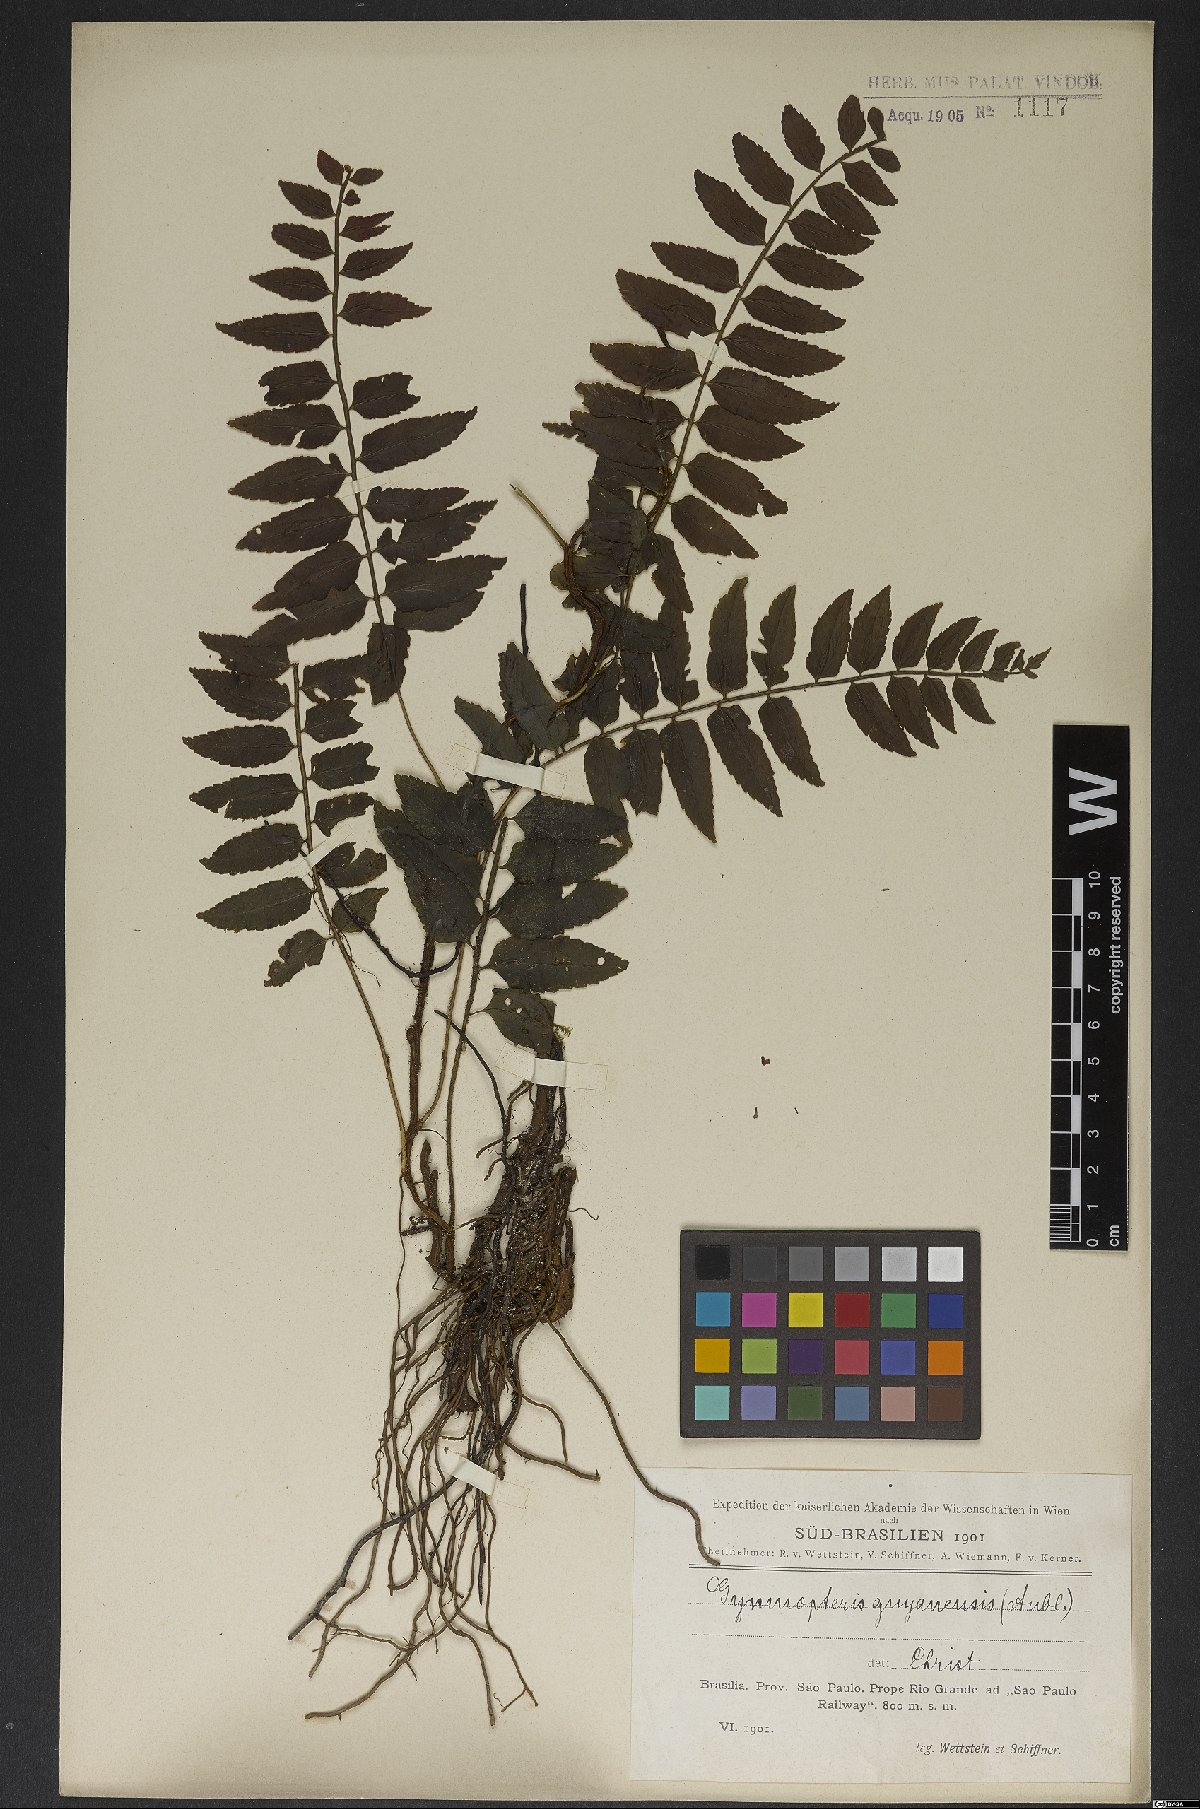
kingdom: Plantae
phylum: Tracheophyta
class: Polypodiopsida
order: Polypodiales
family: Dryopteridaceae
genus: Mickelia
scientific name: Mickelia guianensis
